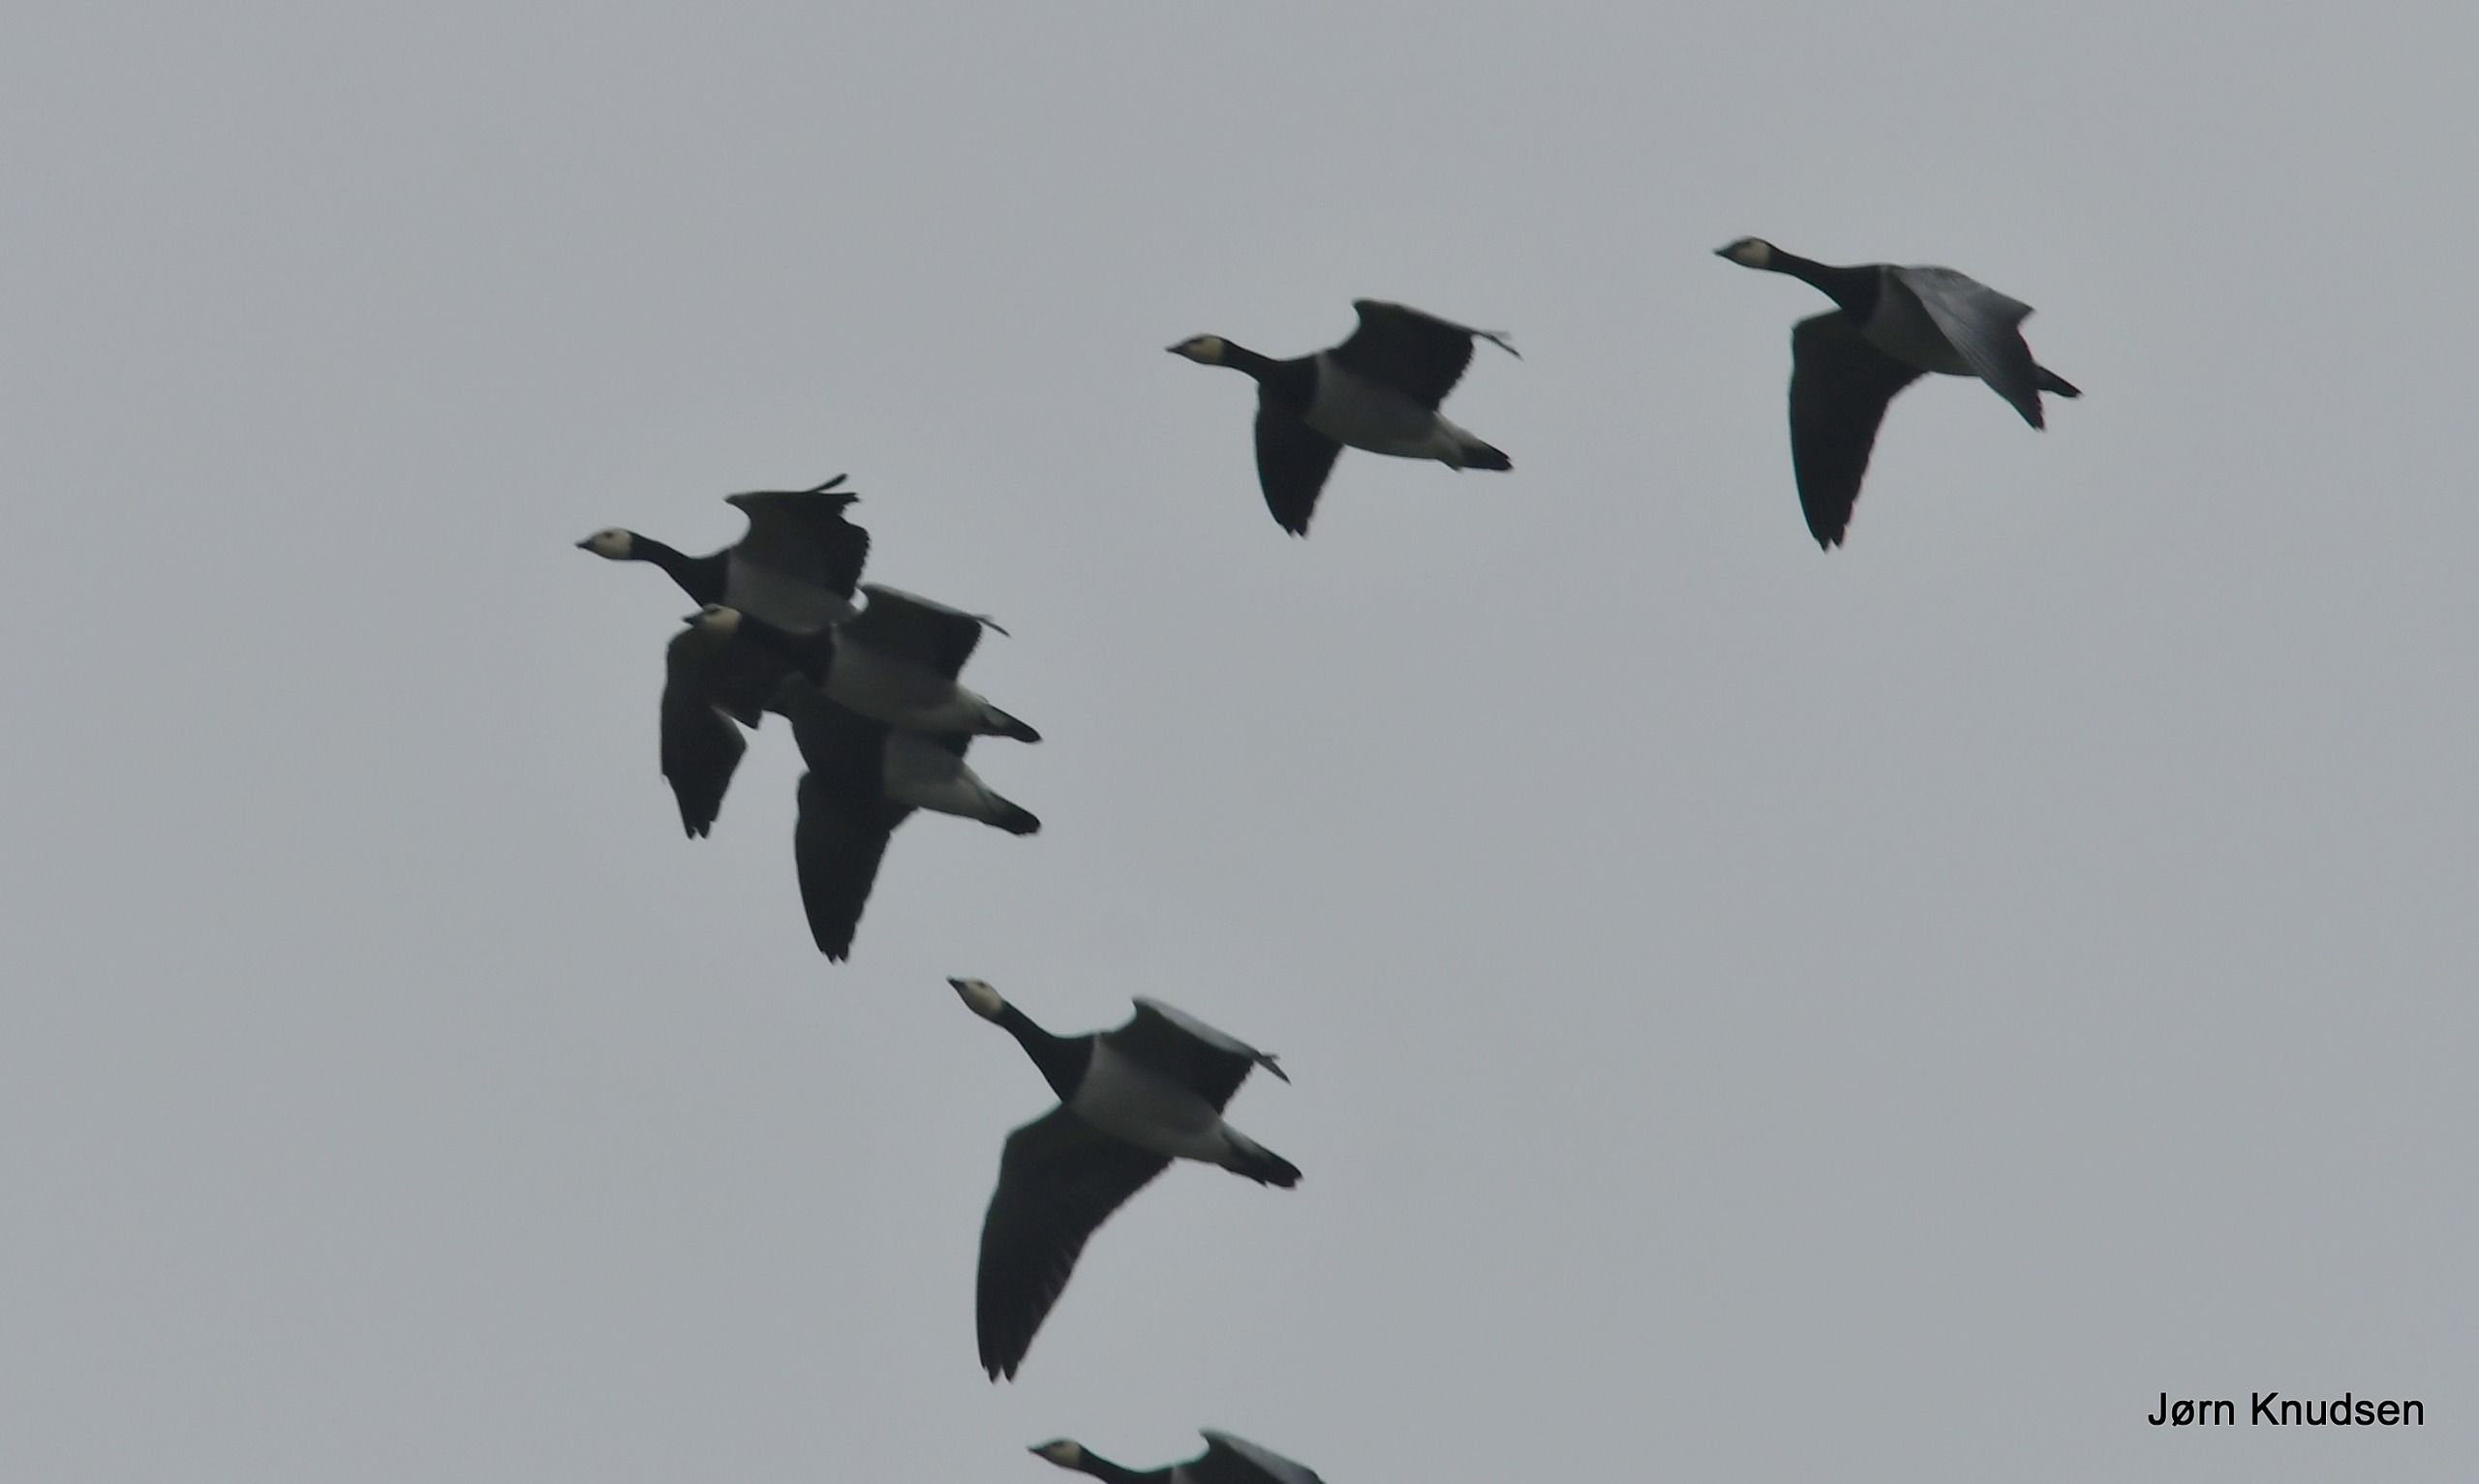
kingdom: Animalia
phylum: Chordata
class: Aves
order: Anseriformes
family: Anatidae
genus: Branta
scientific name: Branta leucopsis
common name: Bramgås
